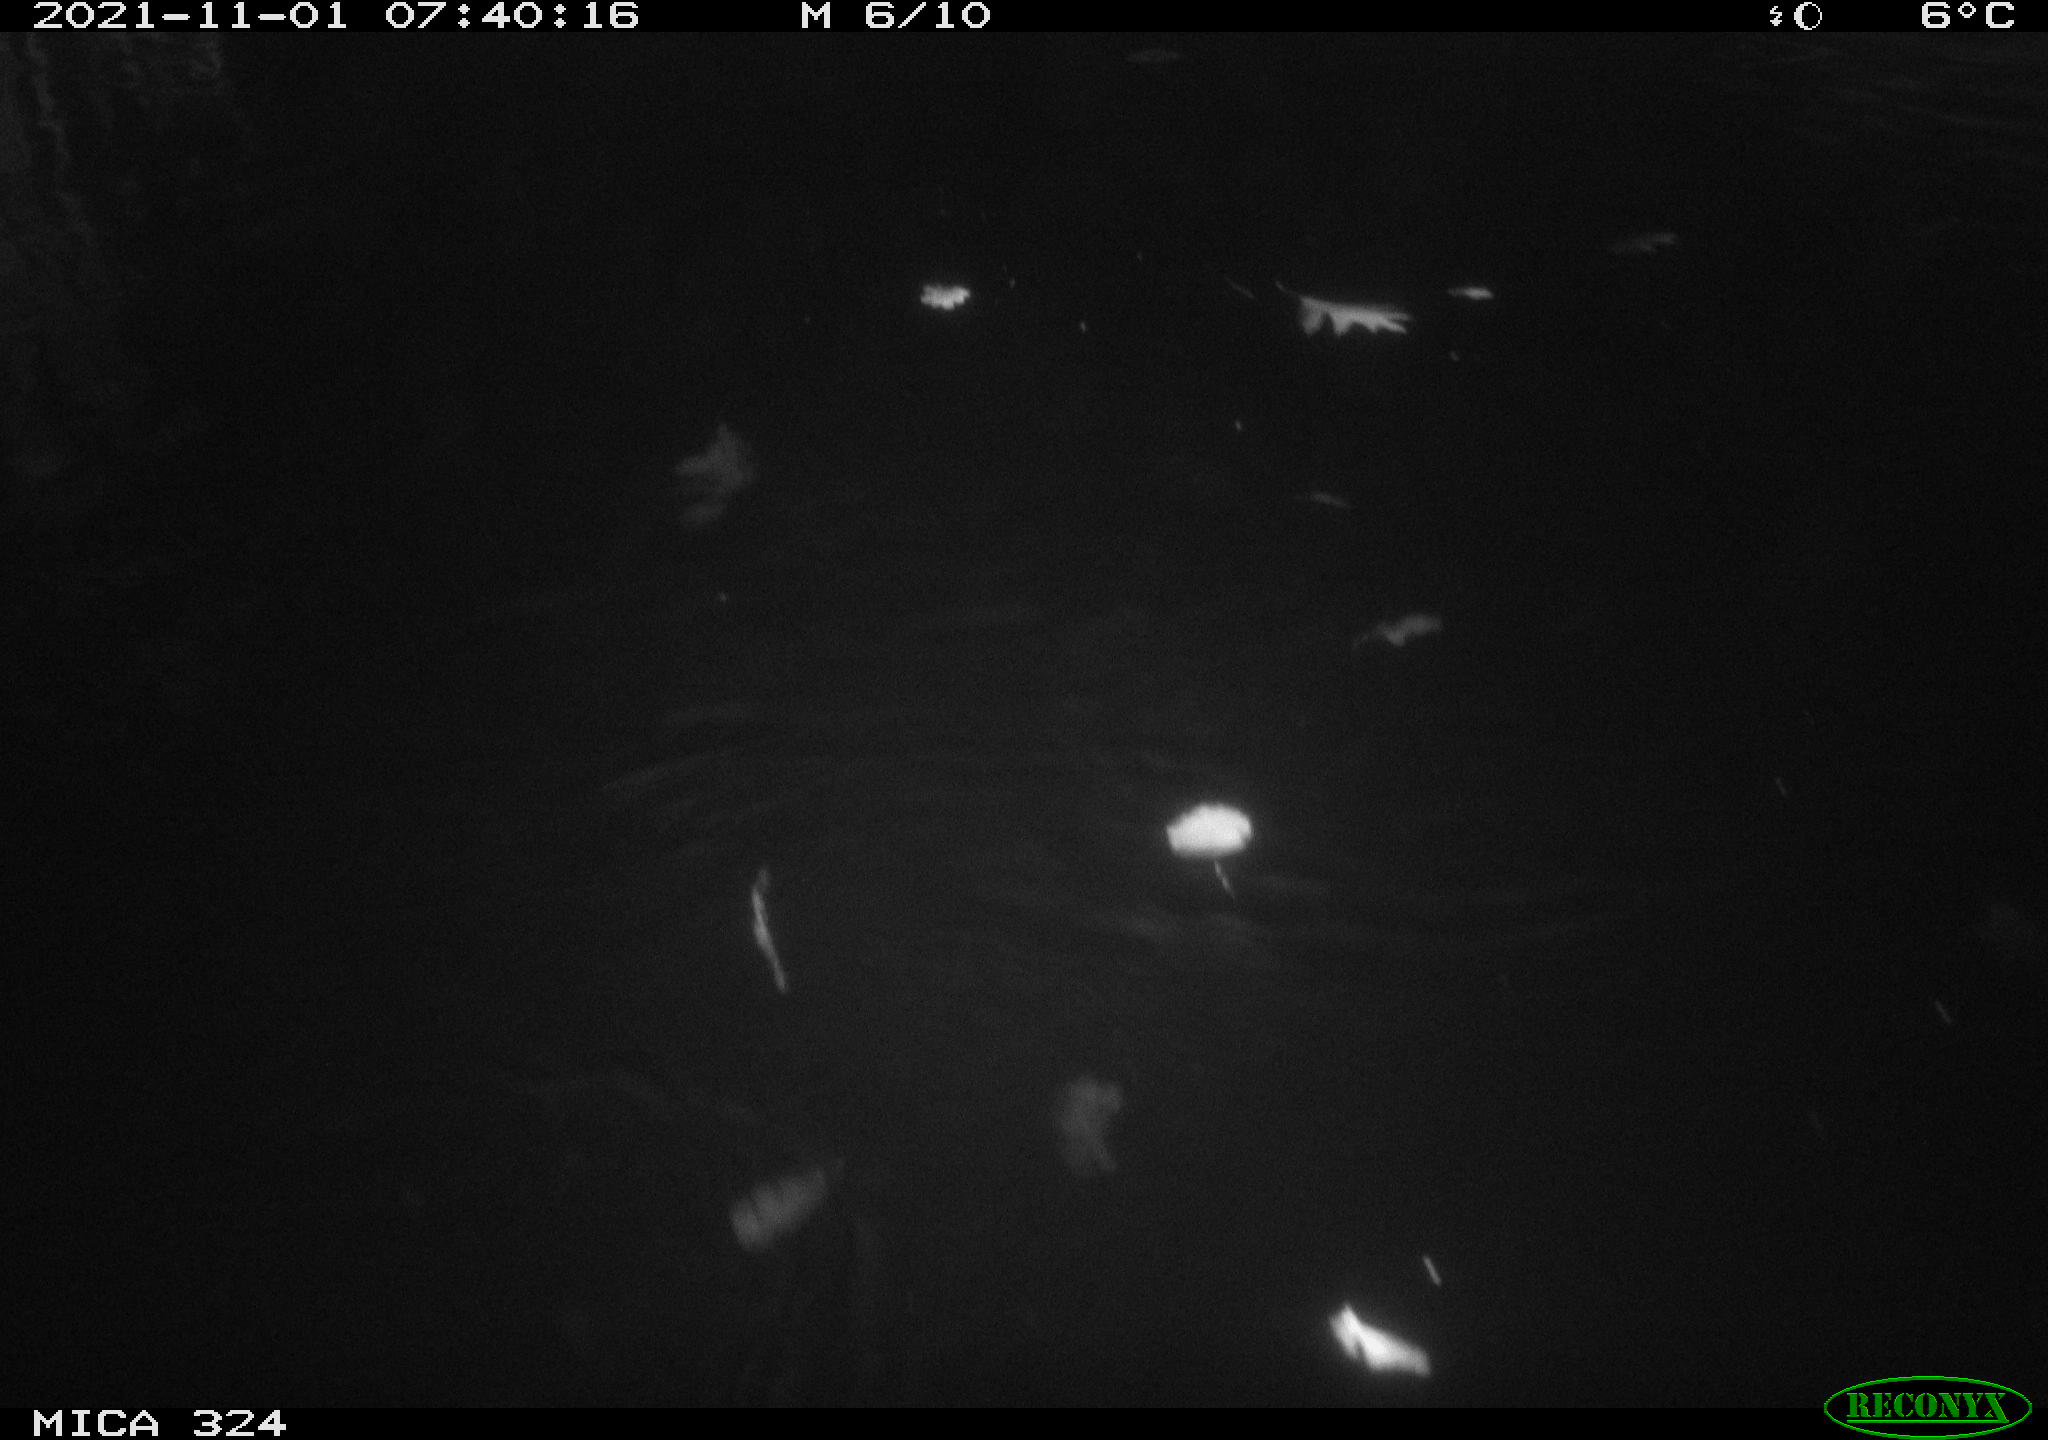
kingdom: Animalia
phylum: Chordata
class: Mammalia
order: Rodentia
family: Cricetidae
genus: Ondatra
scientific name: Ondatra zibethicus
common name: Muskrat
